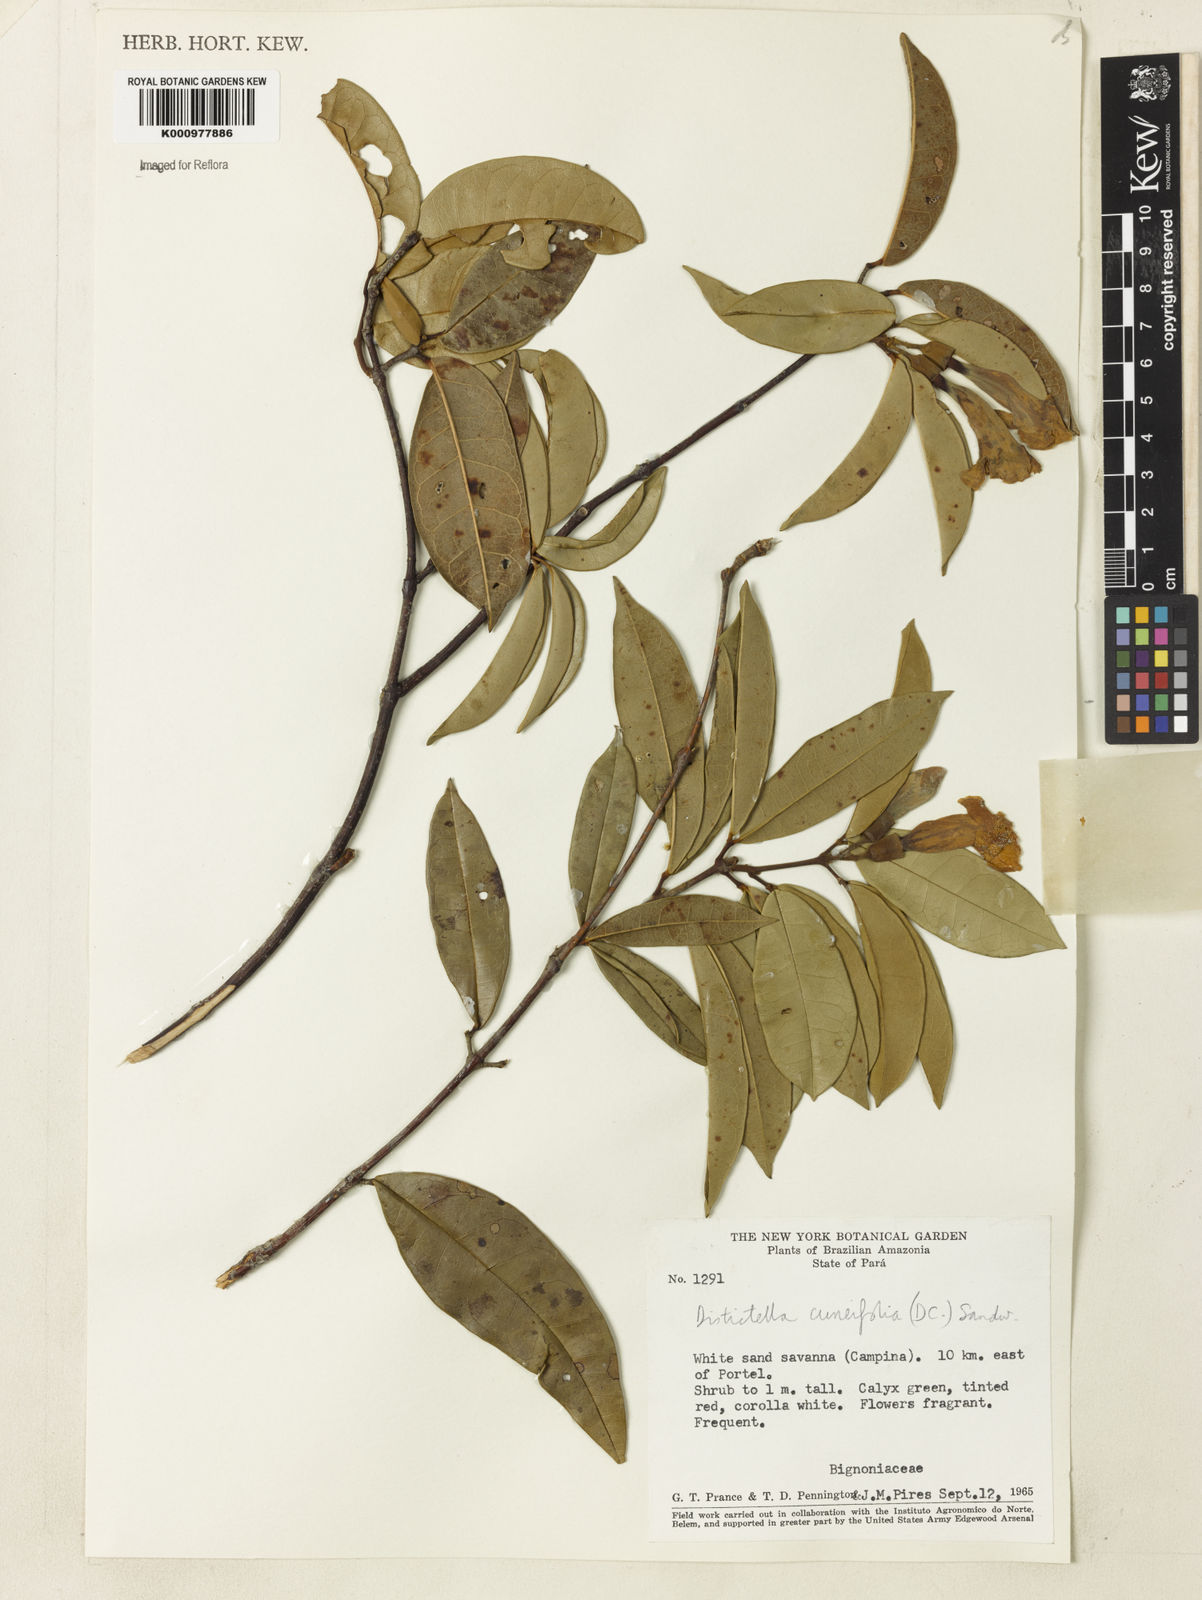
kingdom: Plantae
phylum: Tracheophyta
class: Magnoliopsida
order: Lamiales
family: Bignoniaceae
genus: Amphilophium
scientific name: Amphilophium cuneifolium
